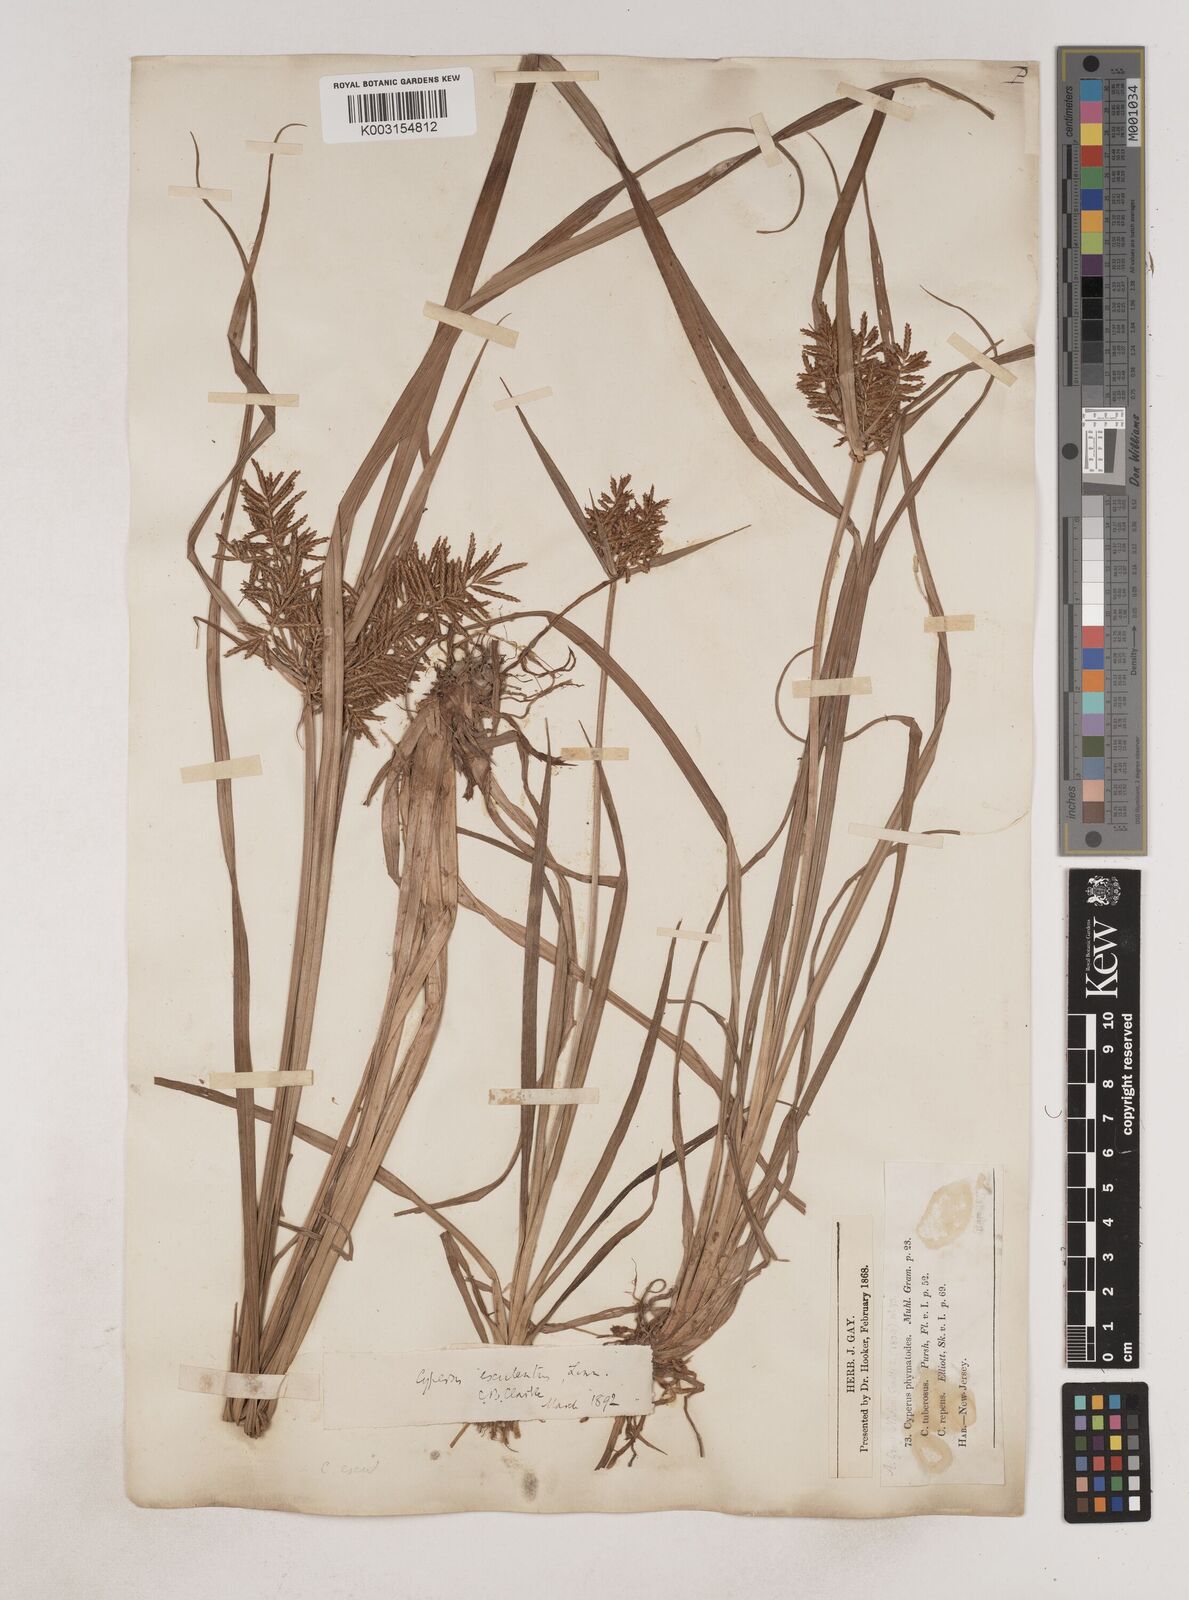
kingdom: Plantae
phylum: Tracheophyta
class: Liliopsida
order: Poales
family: Cyperaceae
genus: Cyperus
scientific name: Cyperus esculentus
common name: Yellow nutsedge
